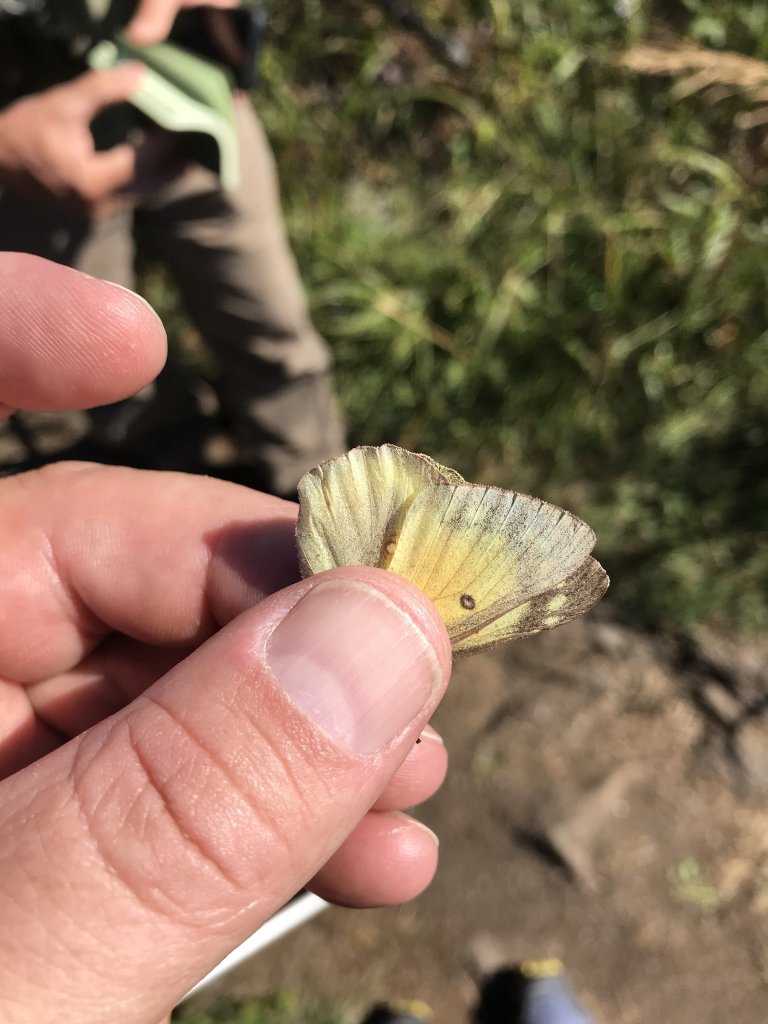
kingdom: Animalia
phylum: Arthropoda
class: Insecta
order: Lepidoptera
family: Pieridae
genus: Colias
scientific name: Colias eurytheme
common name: Orange Sulphur
